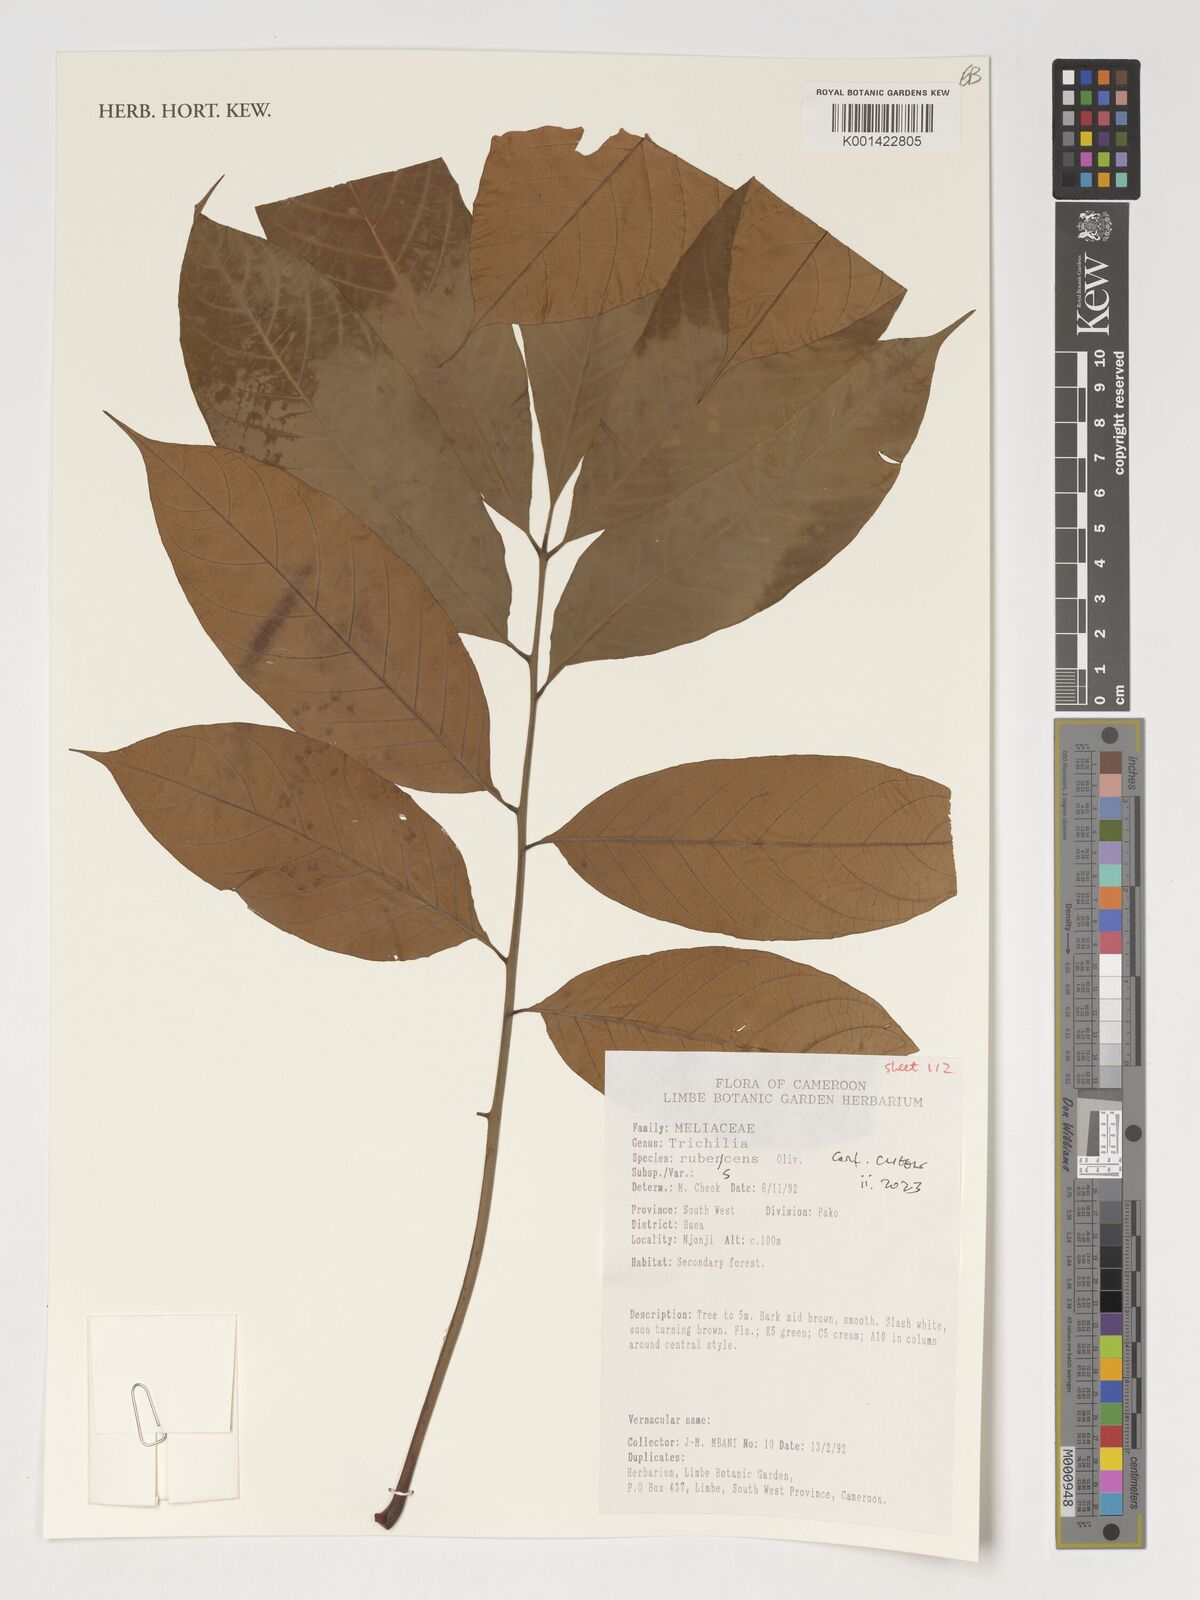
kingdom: Plantae
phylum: Tracheophyta
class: Magnoliopsida
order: Malpighiales
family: Euphorbiaceae
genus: Alchornea
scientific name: Alchornea
